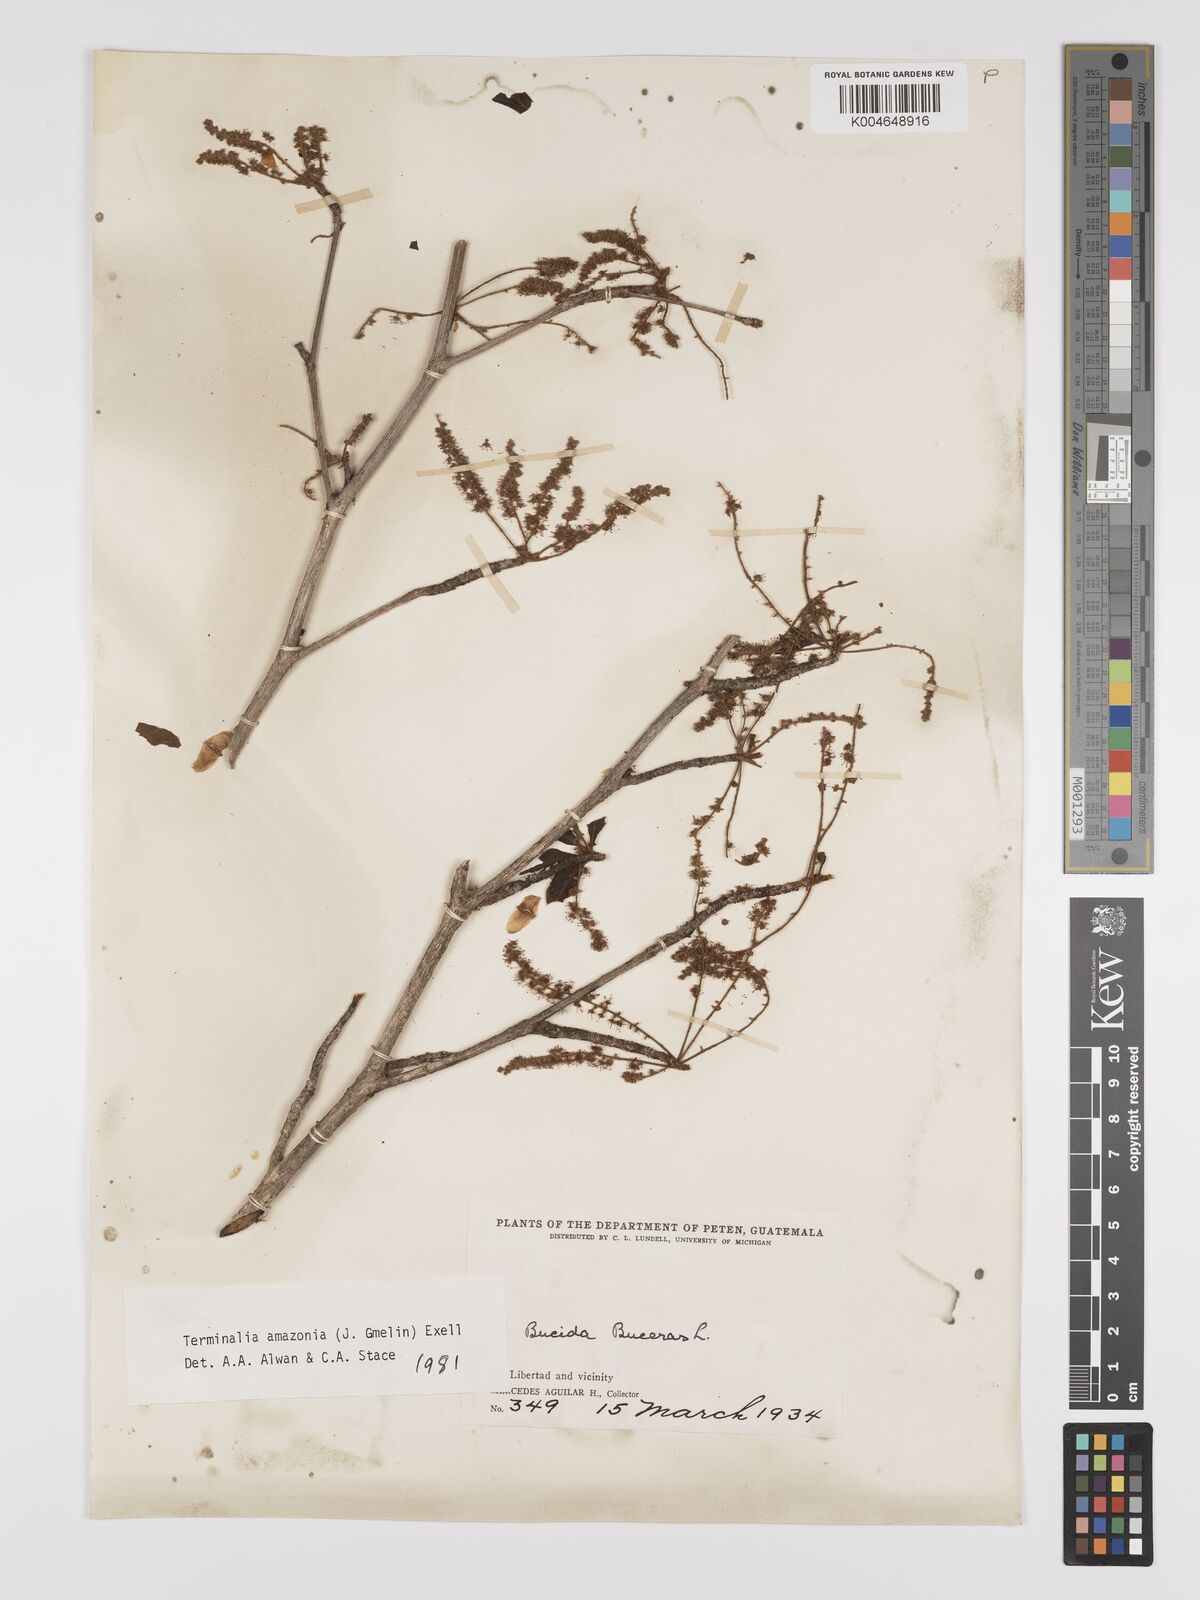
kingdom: Plantae
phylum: Tracheophyta
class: Magnoliopsida
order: Myrtales
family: Combretaceae
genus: Terminalia
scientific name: Terminalia amazonica
